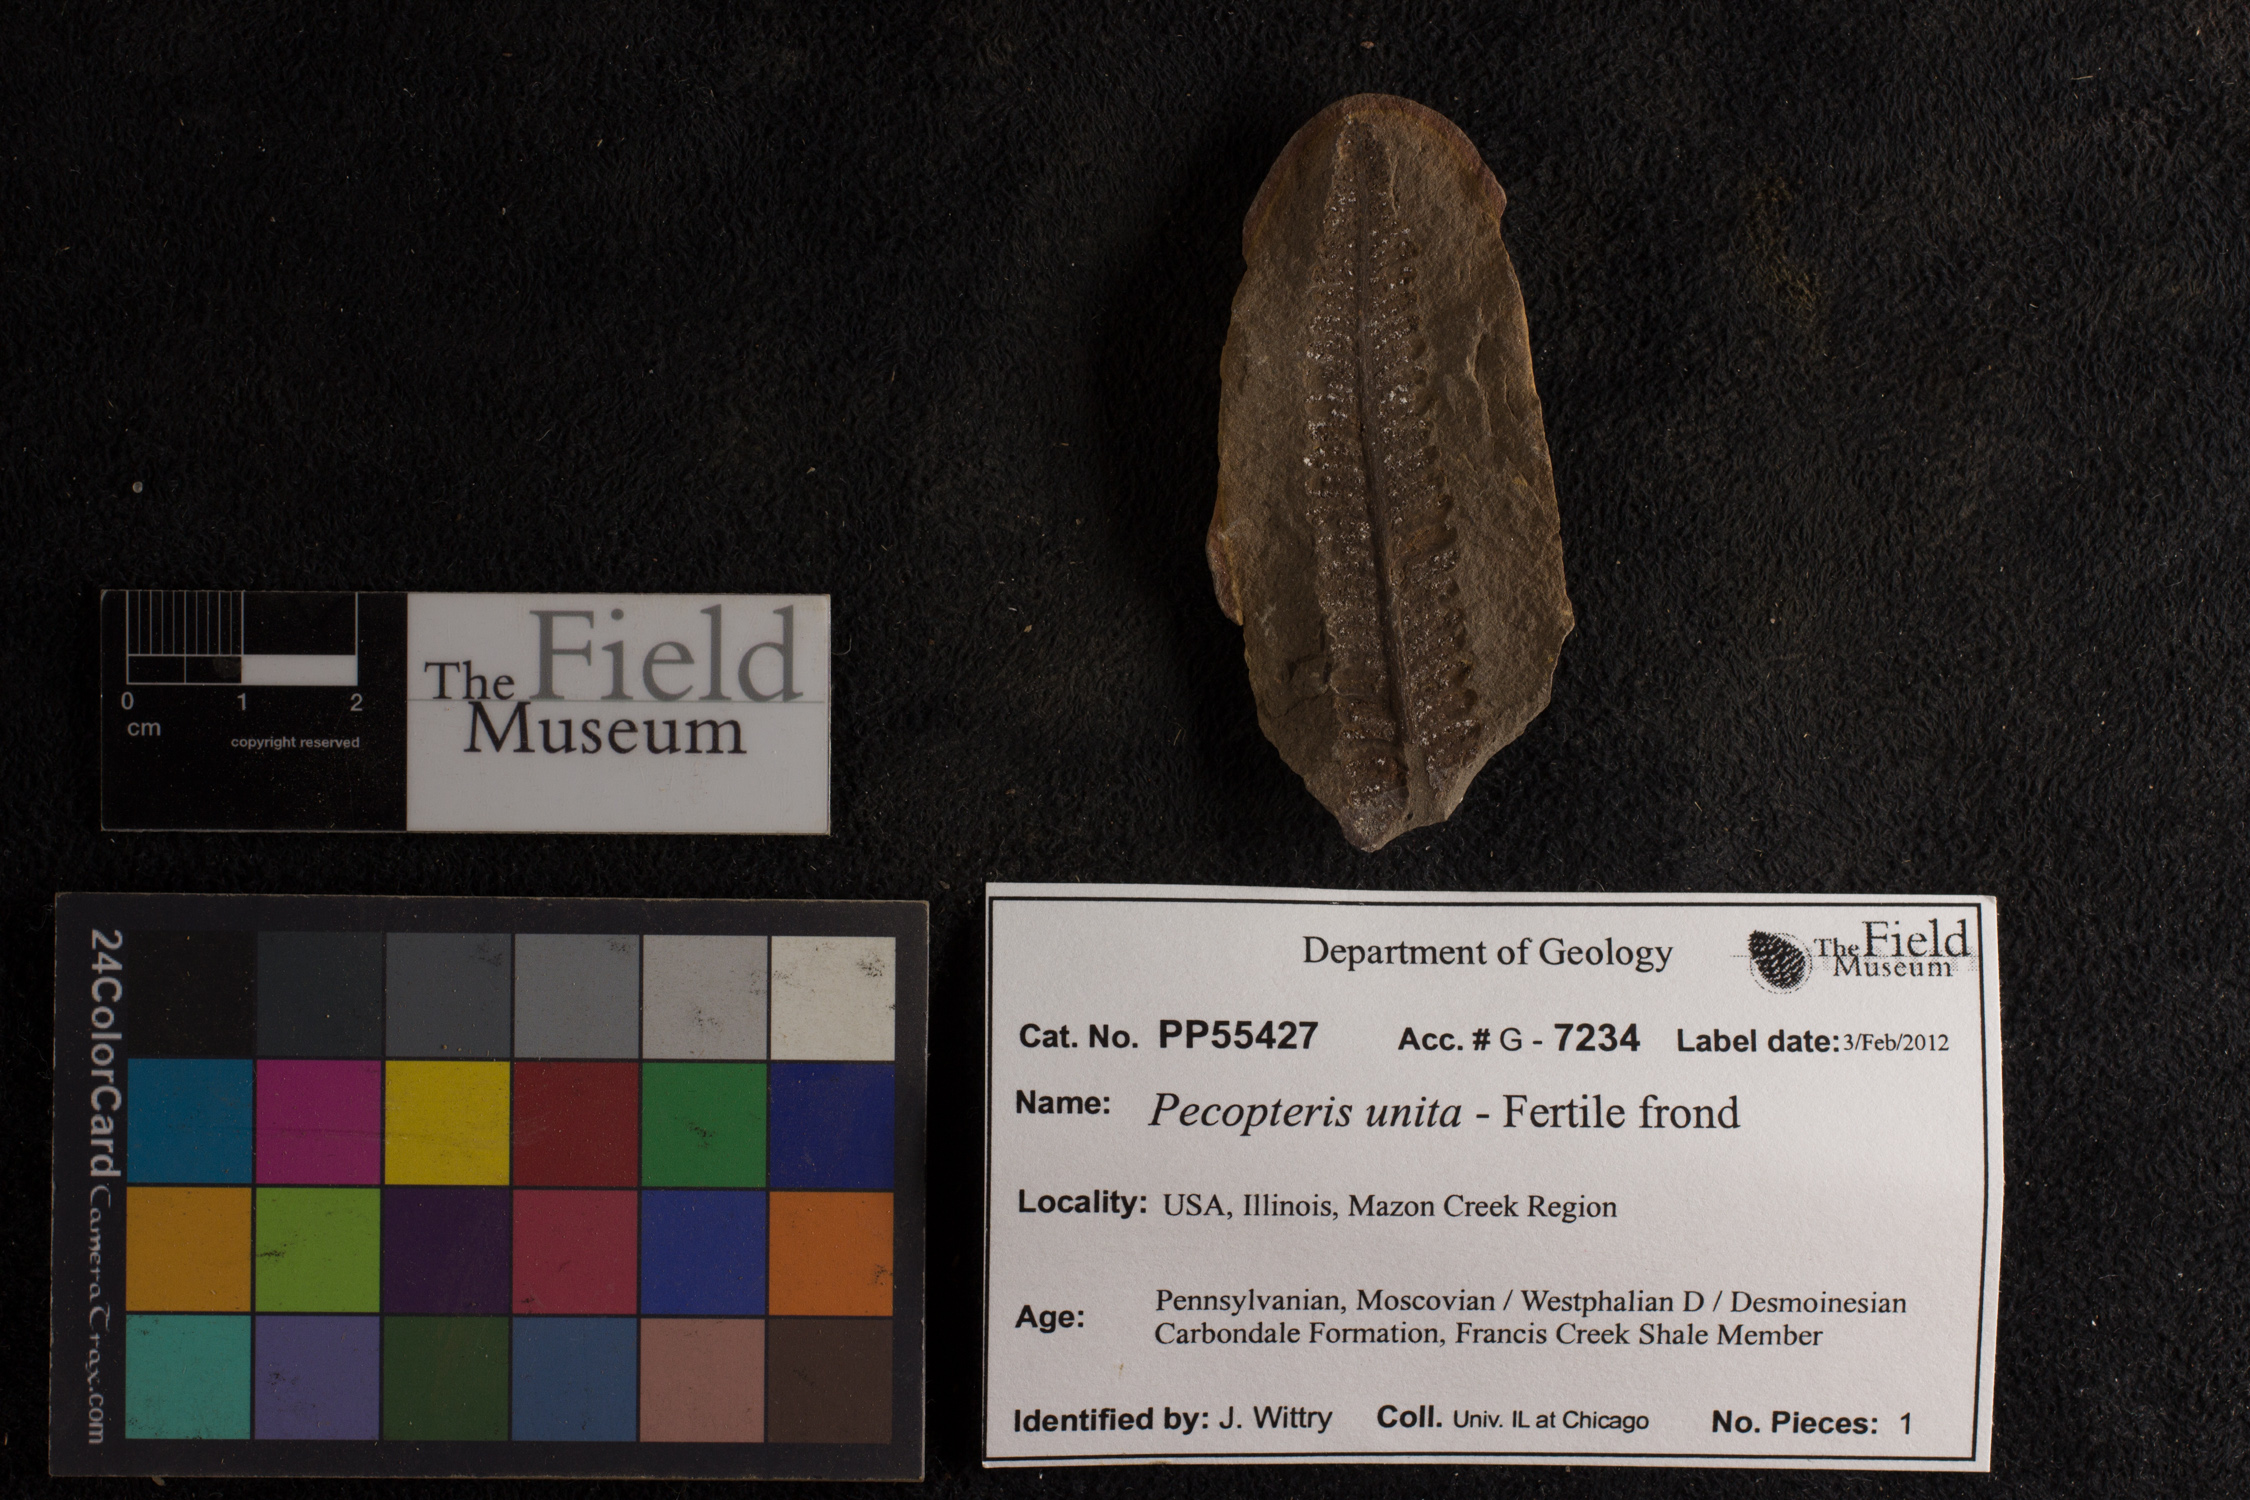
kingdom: Plantae
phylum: Tracheophyta
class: Polypodiopsida
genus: Diplazites
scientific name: Diplazites
